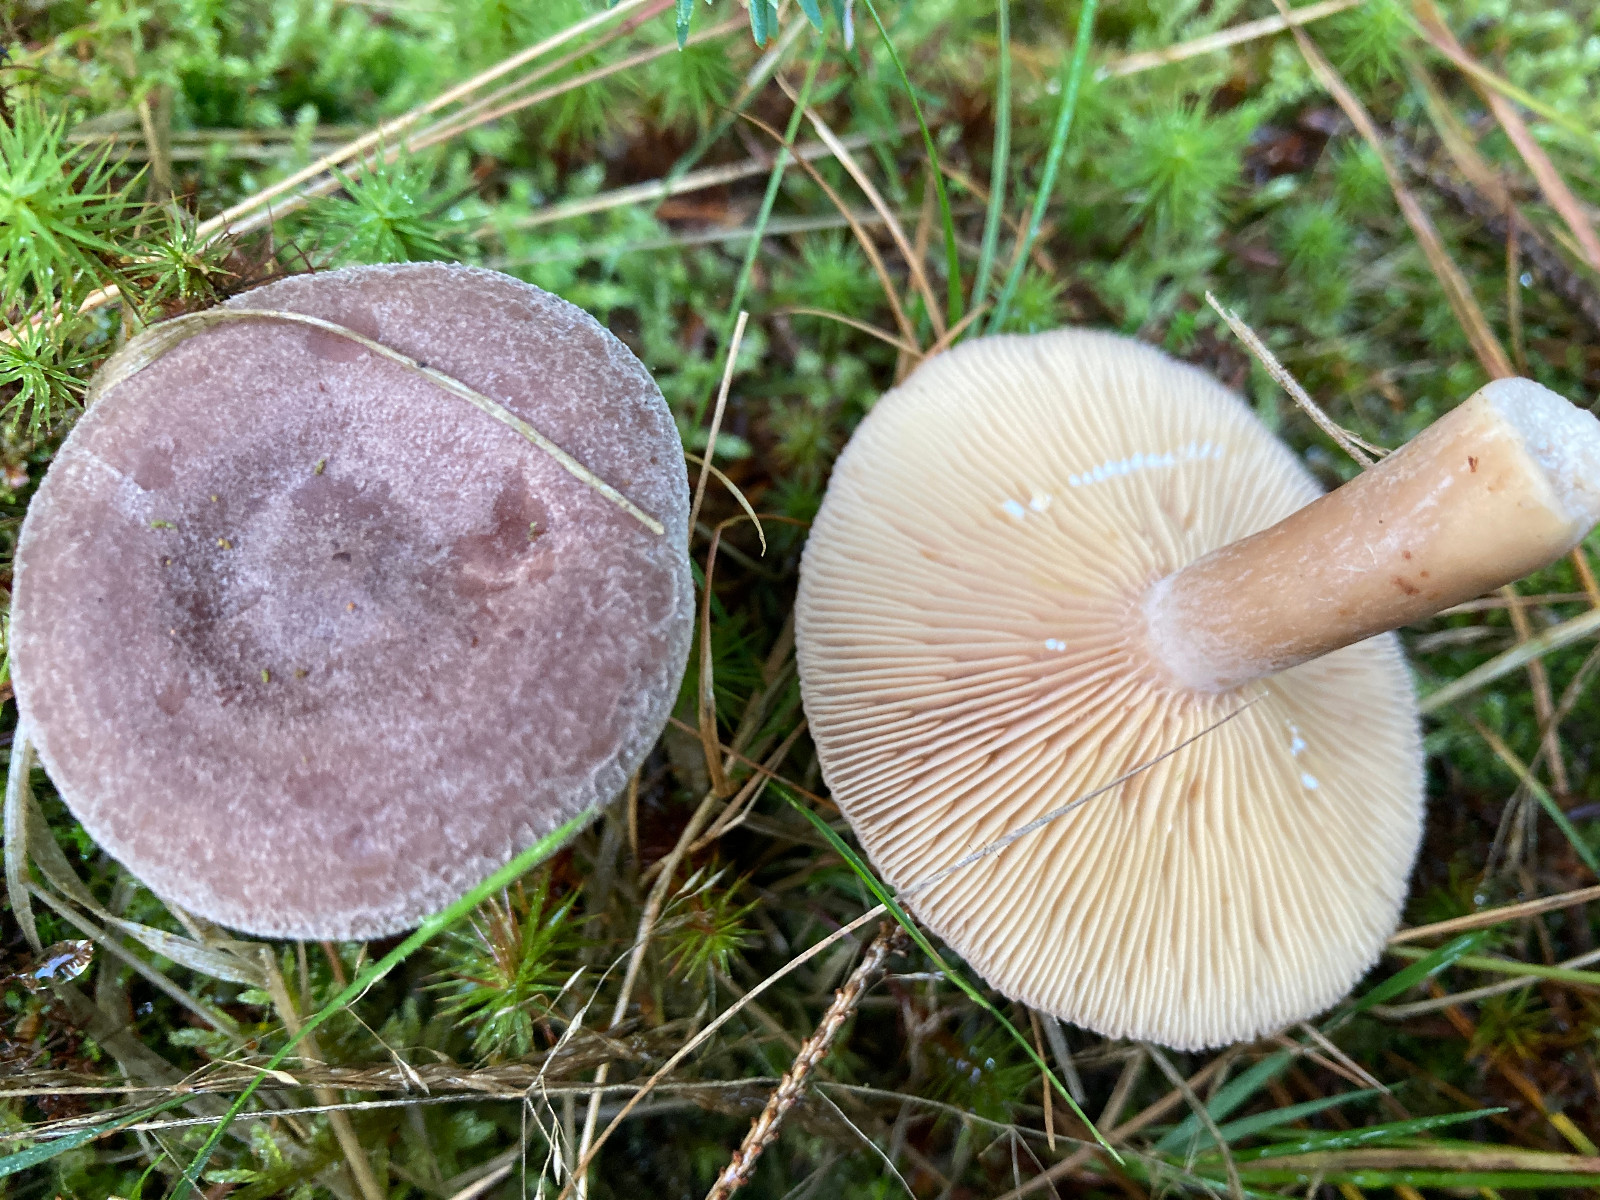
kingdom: Fungi
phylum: Basidiomycota
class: Agaricomycetes
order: Russulales
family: Russulaceae
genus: Lactarius
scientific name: Lactarius mammosus
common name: kokosbrun mælkehat
